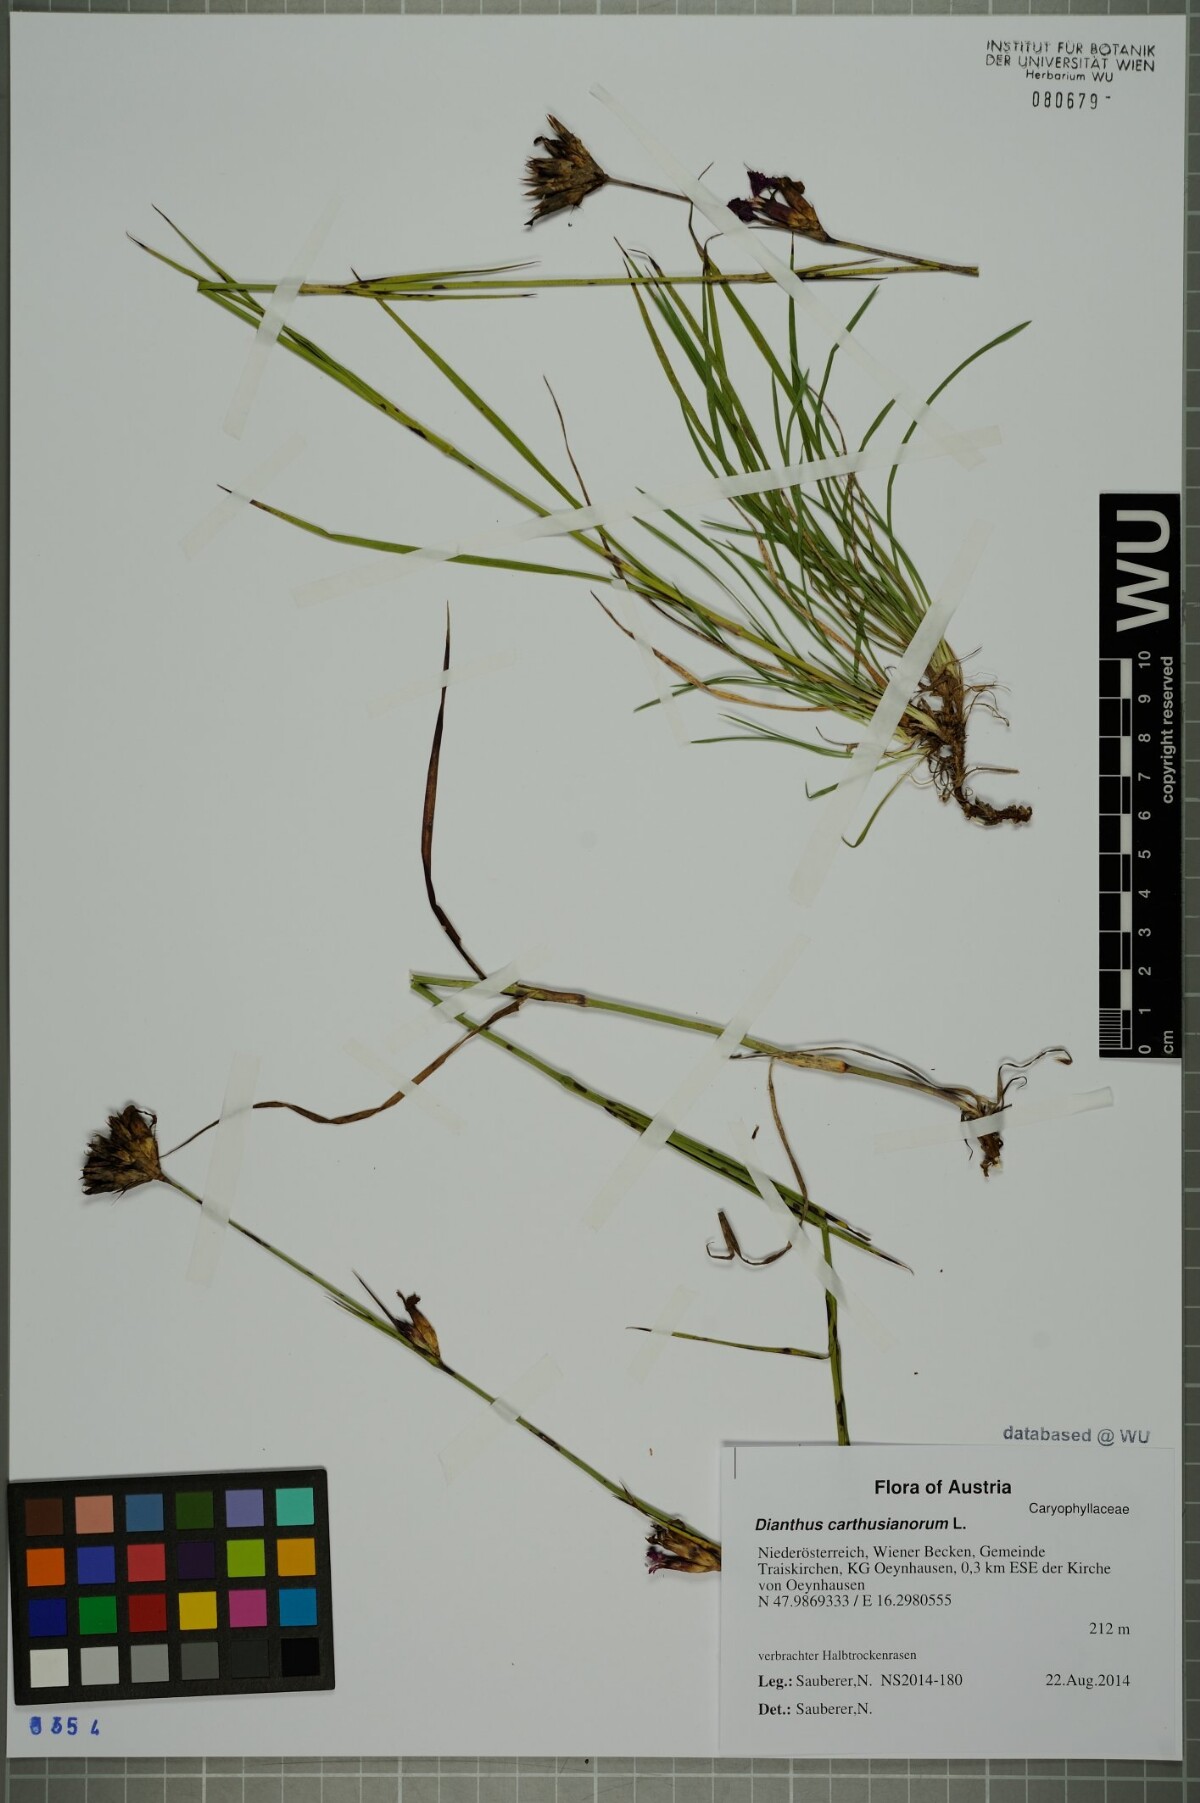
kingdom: Plantae
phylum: Tracheophyta
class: Magnoliopsida
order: Caryophyllales
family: Caryophyllaceae
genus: Dianthus
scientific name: Dianthus carthusianorum
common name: Carthusian pink
